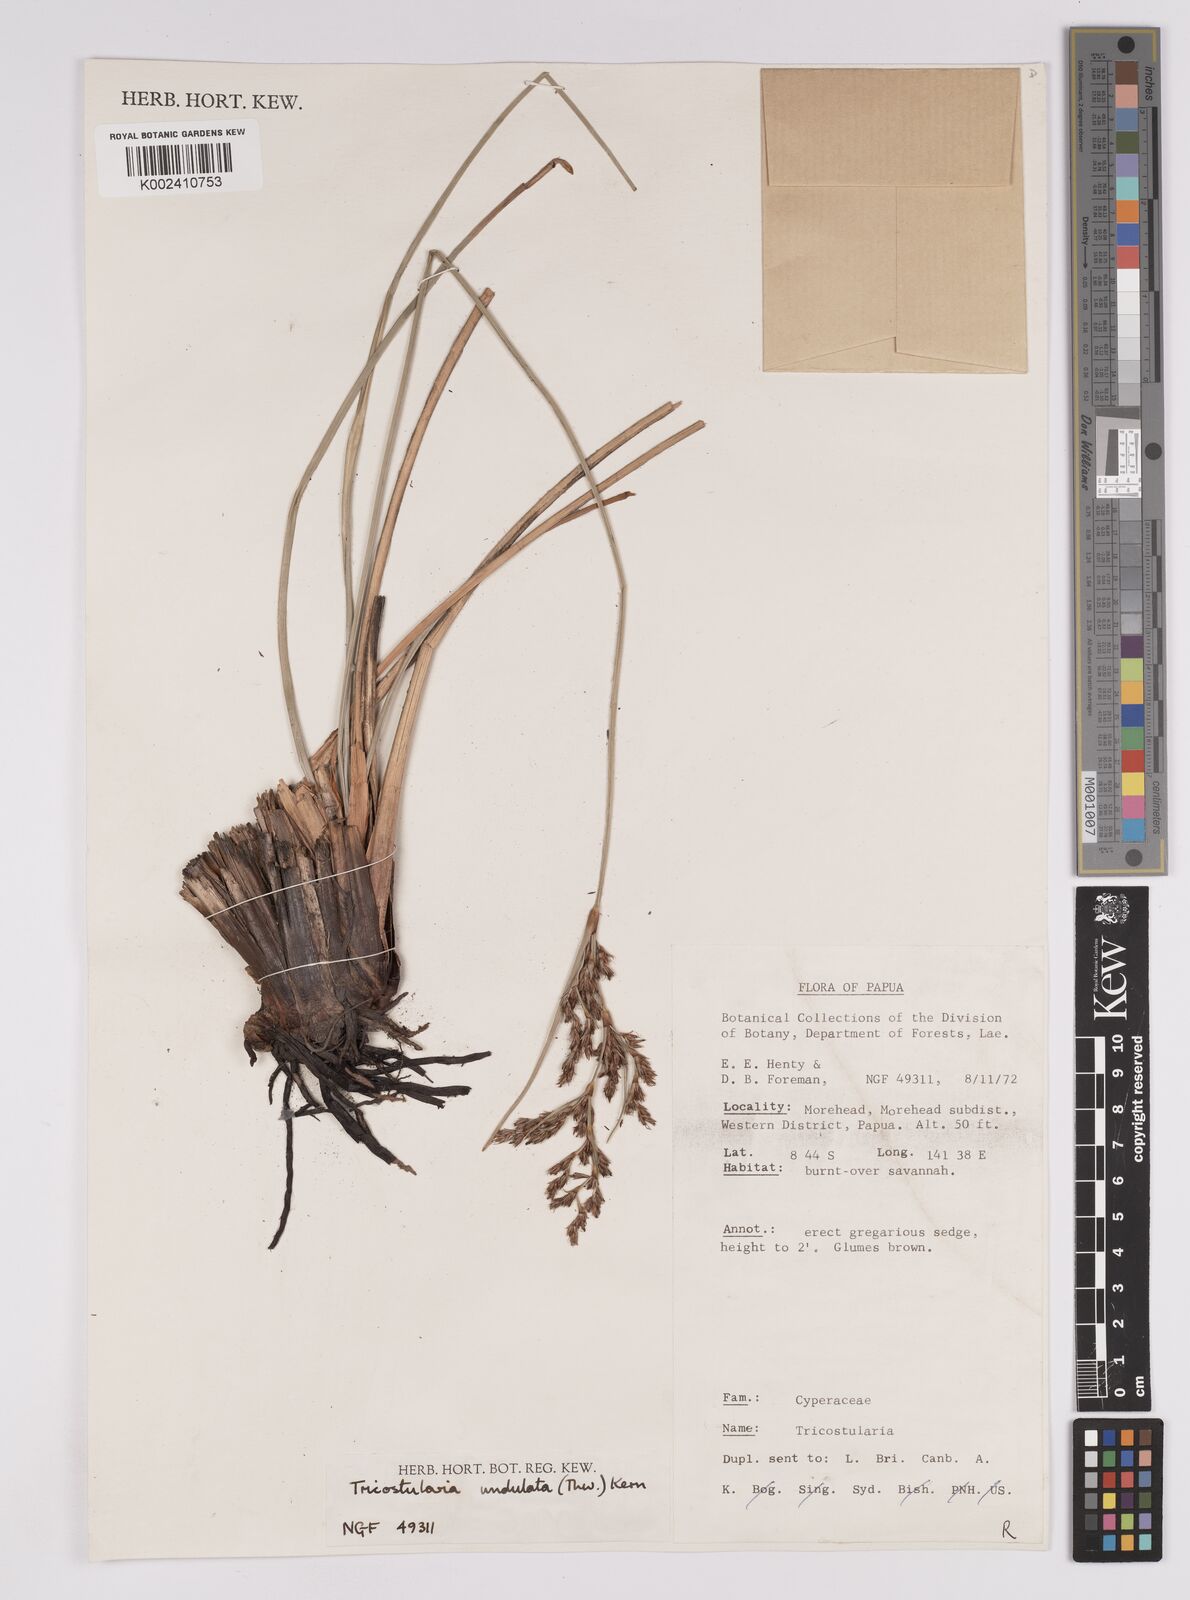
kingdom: Plantae
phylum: Tracheophyta
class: Liliopsida
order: Poales
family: Cyperaceae
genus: Anthelepis
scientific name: Anthelepis undulata
